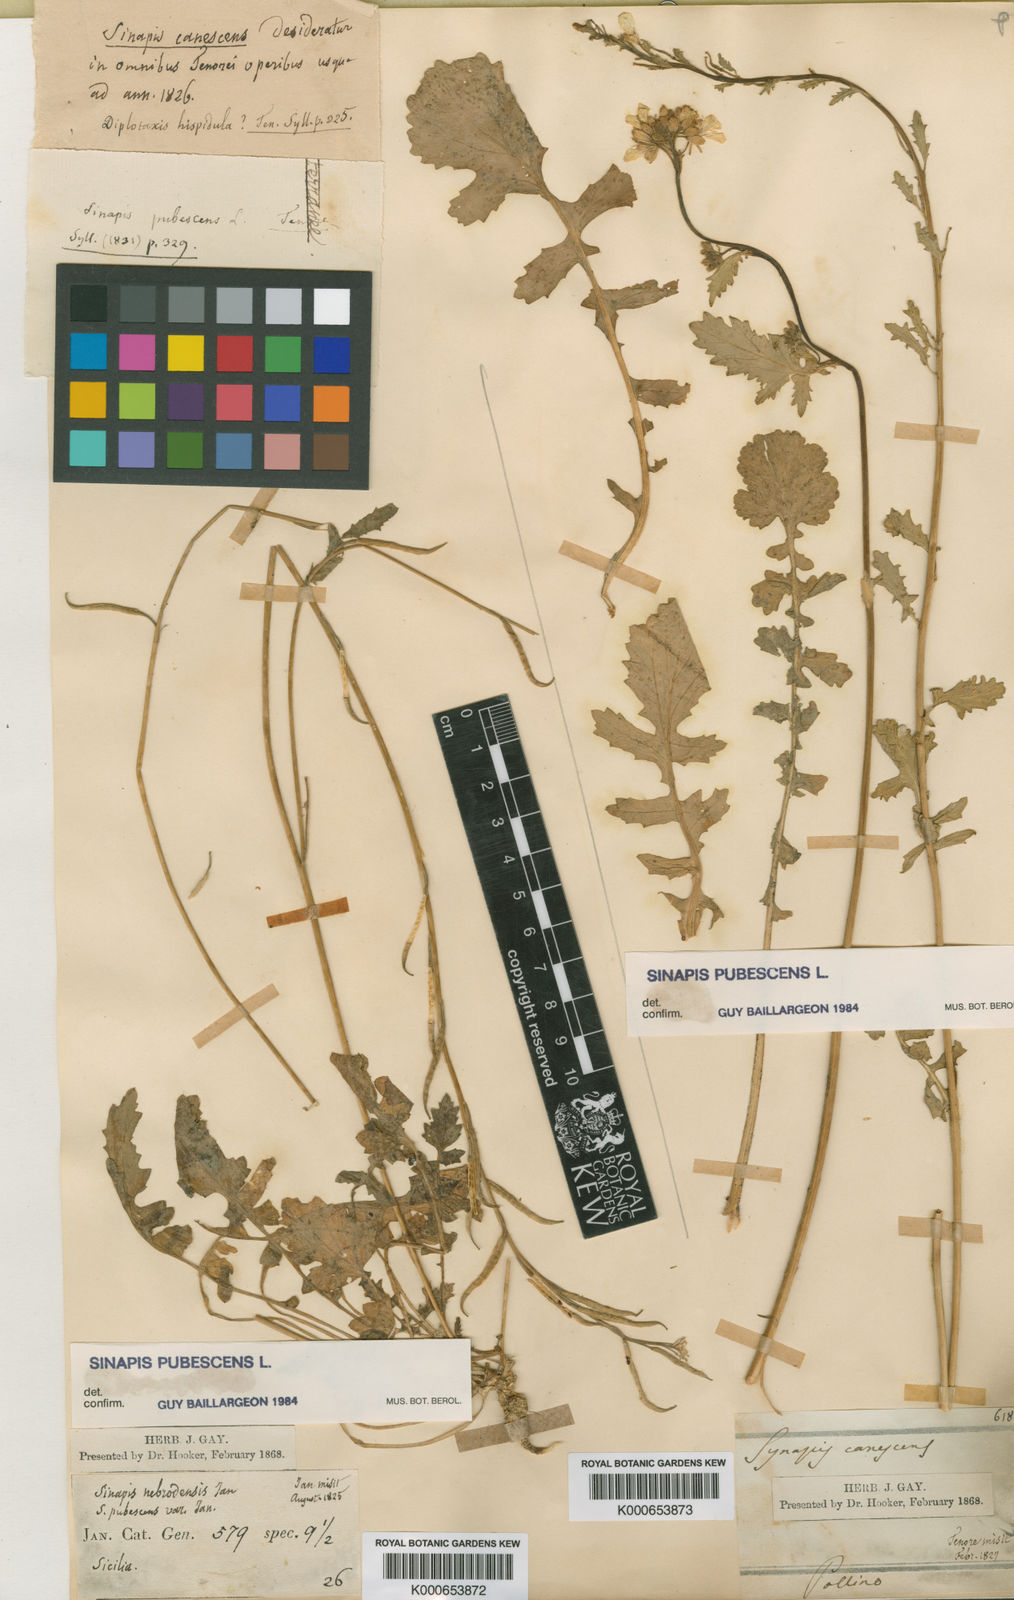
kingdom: Plantae
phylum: Tracheophyta
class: Magnoliopsida
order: Brassicales
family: Brassicaceae
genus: Sinapis
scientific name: Sinapis pubescens
